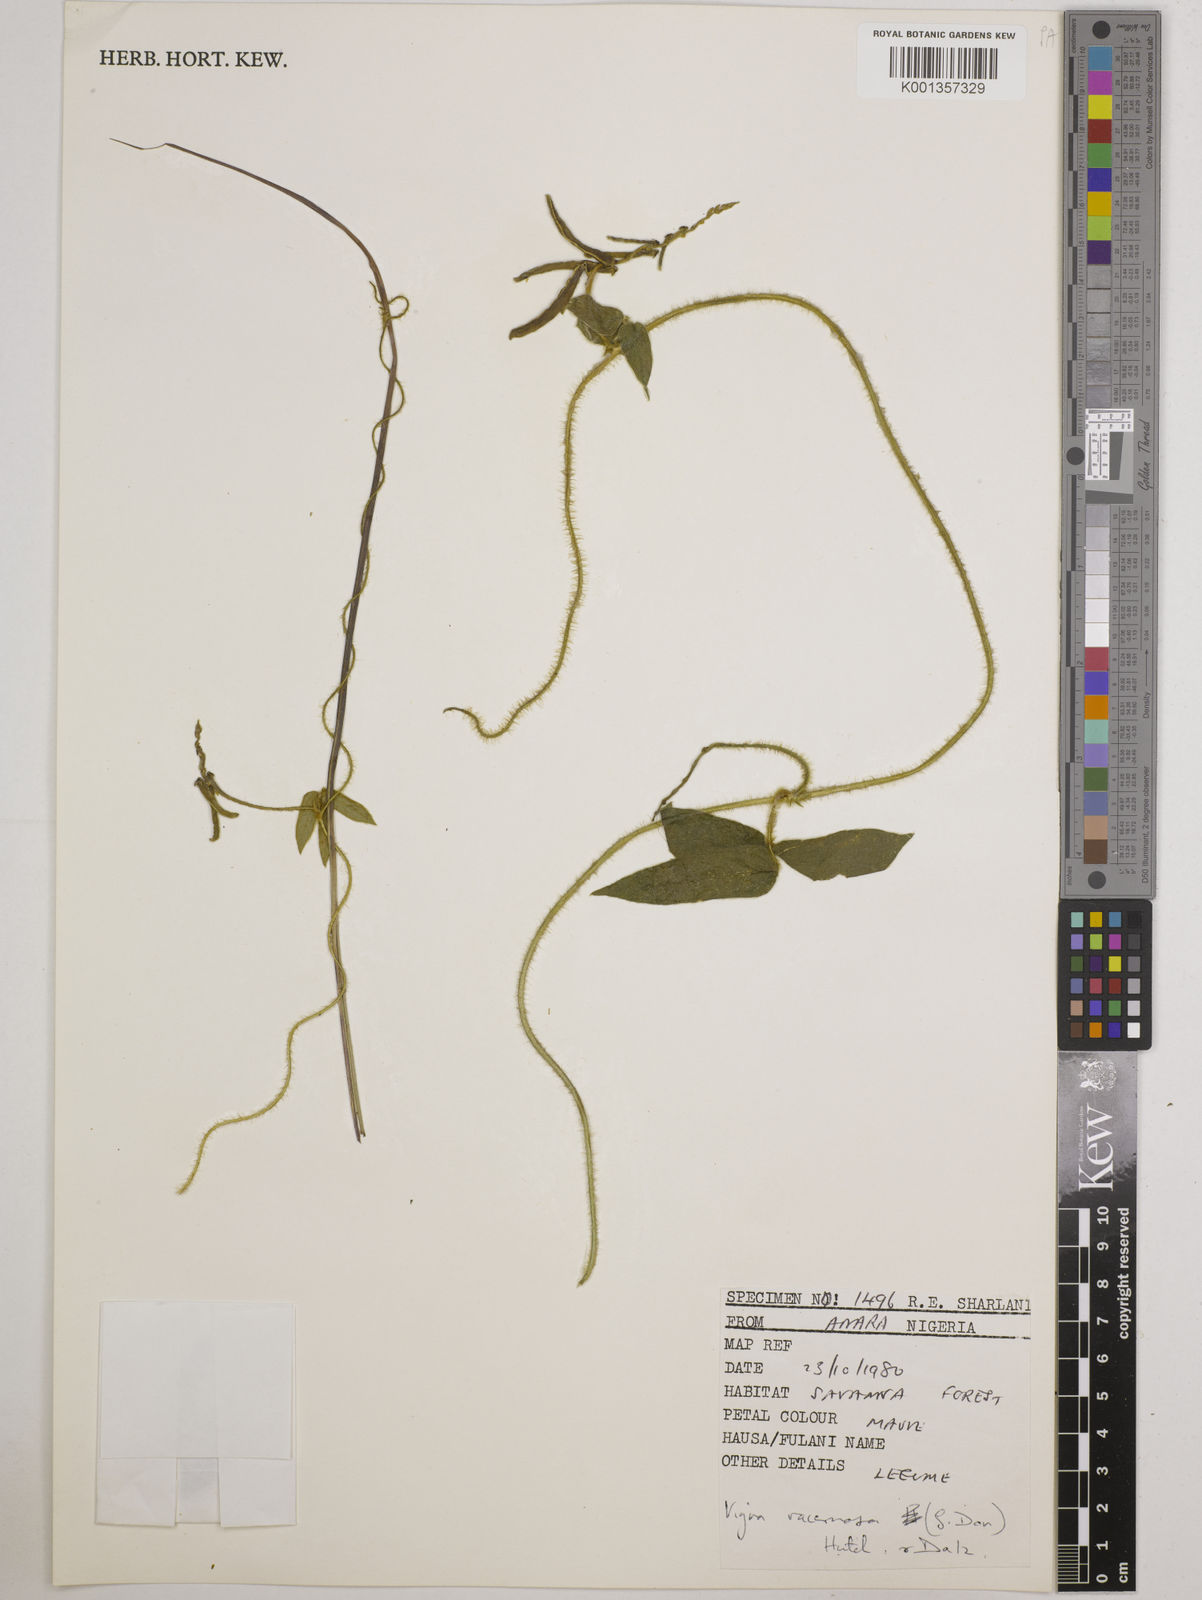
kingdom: Plantae
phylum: Tracheophyta
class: Magnoliopsida
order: Fabales
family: Fabaceae
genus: Vigna
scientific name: Vigna racemosa
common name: Beans not eaten
